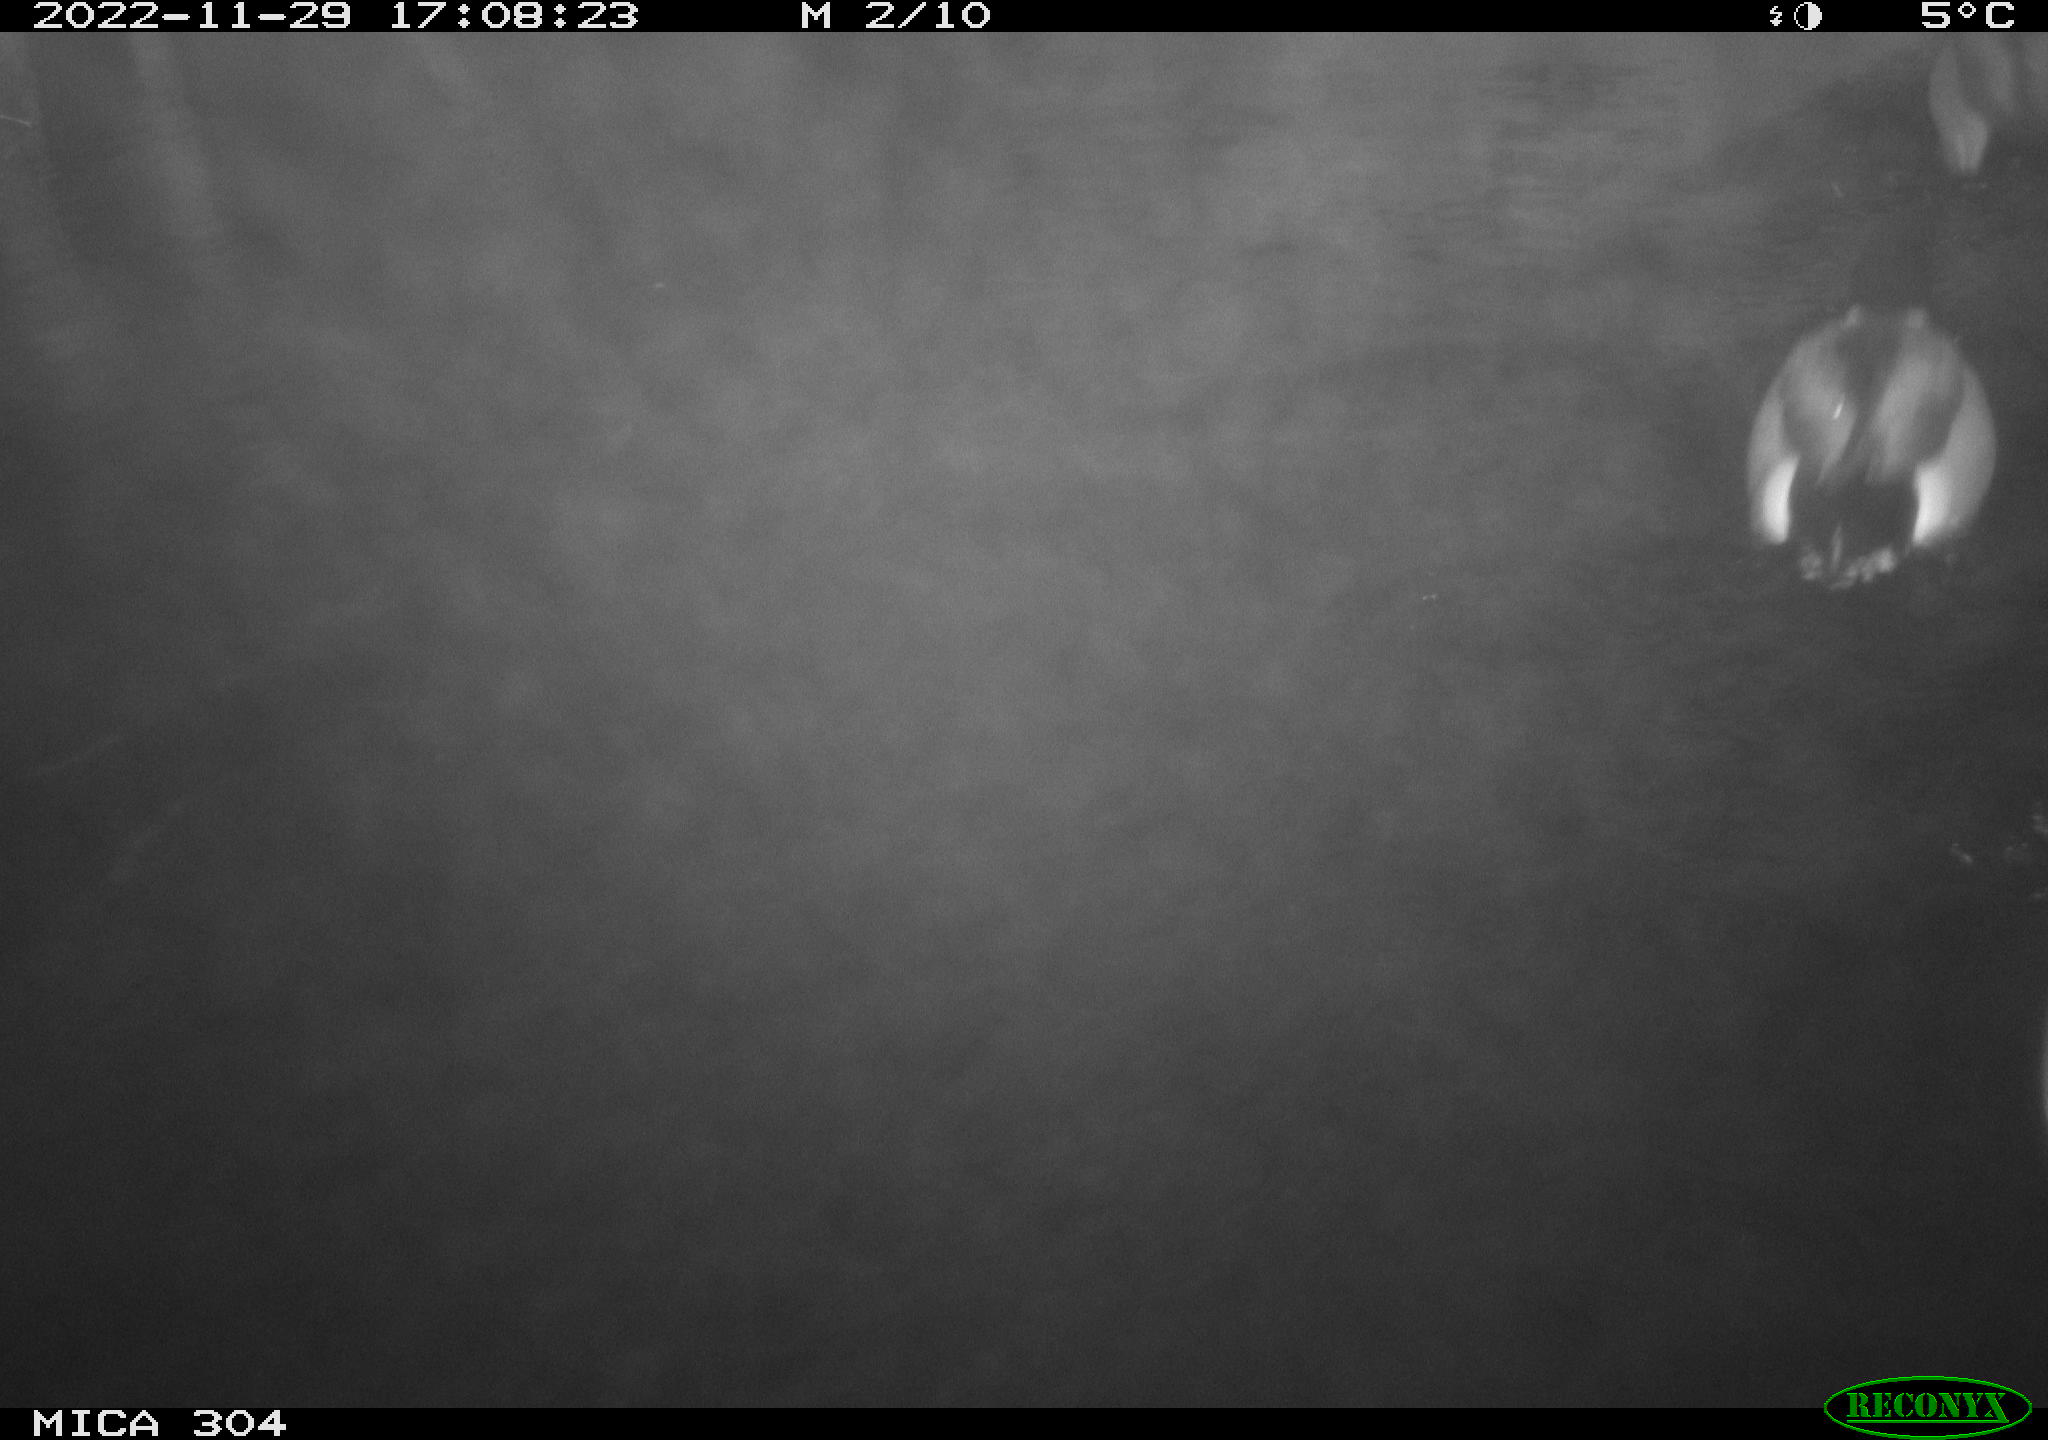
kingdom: Animalia
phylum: Chordata
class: Aves
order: Anseriformes
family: Anatidae
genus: Anas
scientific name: Anas
